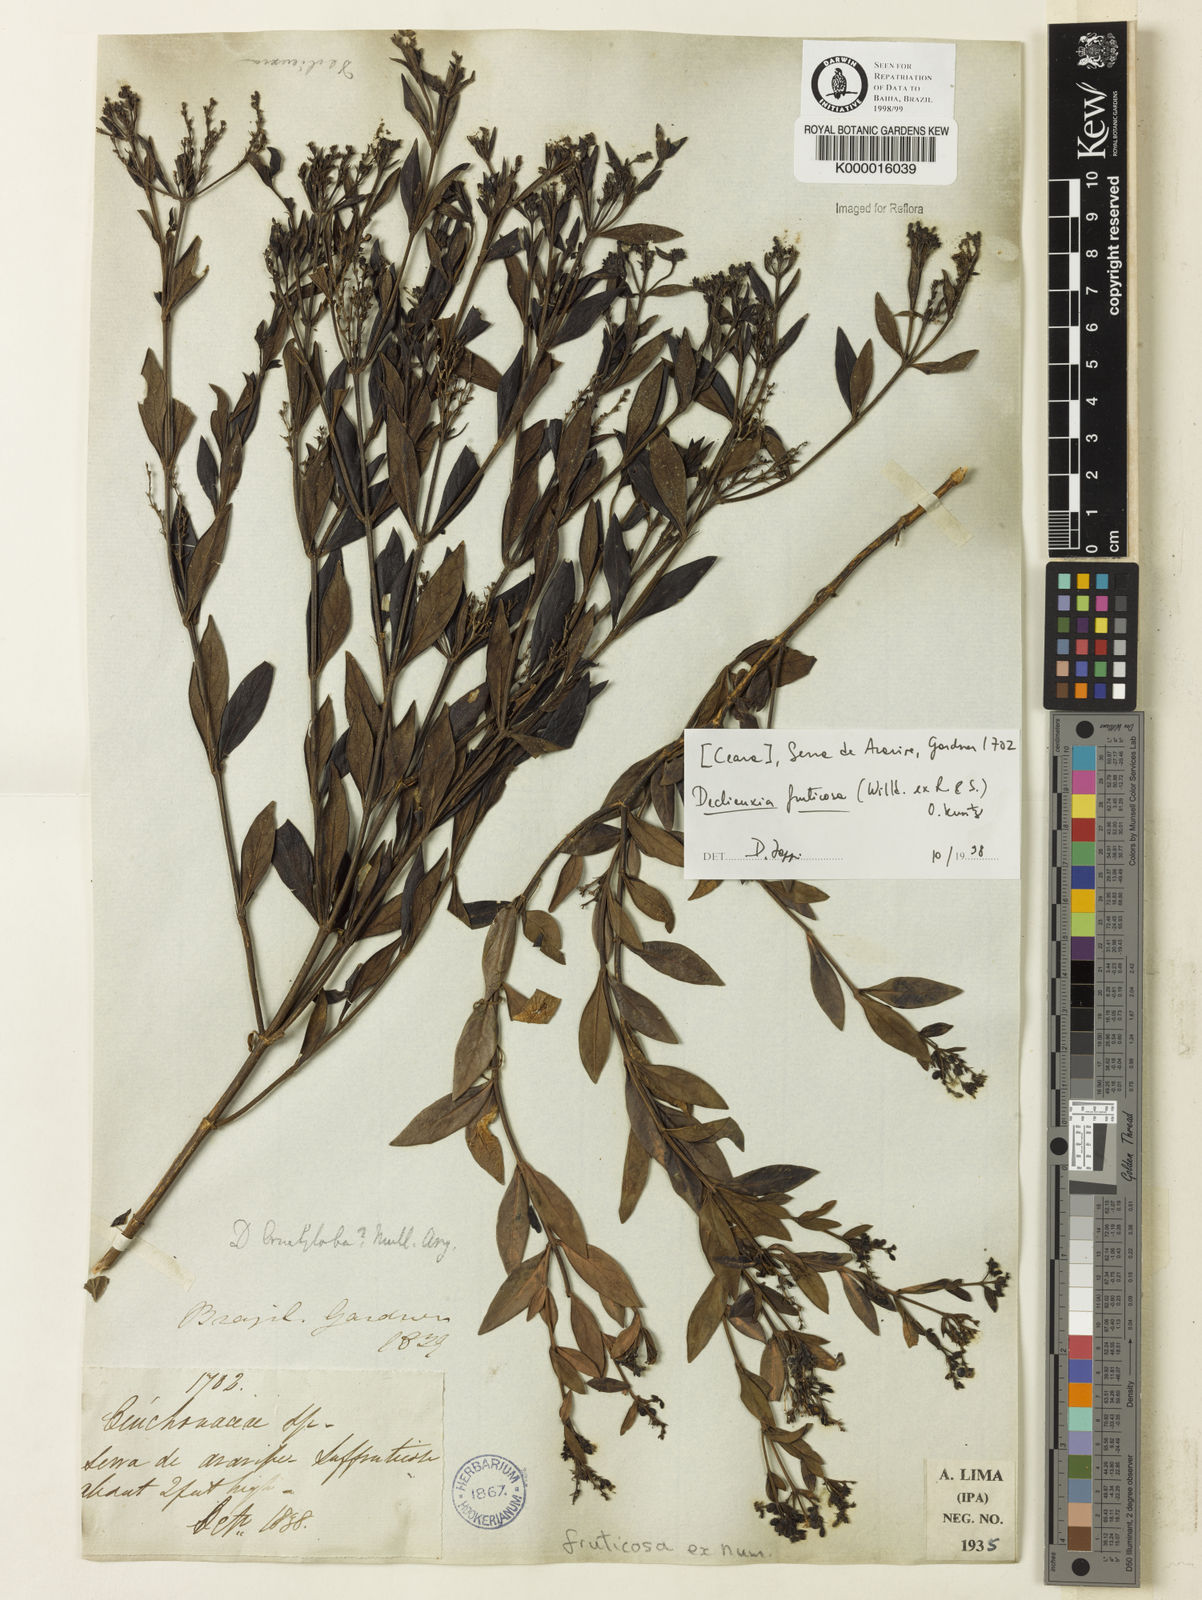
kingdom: Plantae
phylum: Tracheophyta
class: Magnoliopsida
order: Gentianales
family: Rubiaceae
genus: Declieuxia
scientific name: Declieuxia fruticosa
